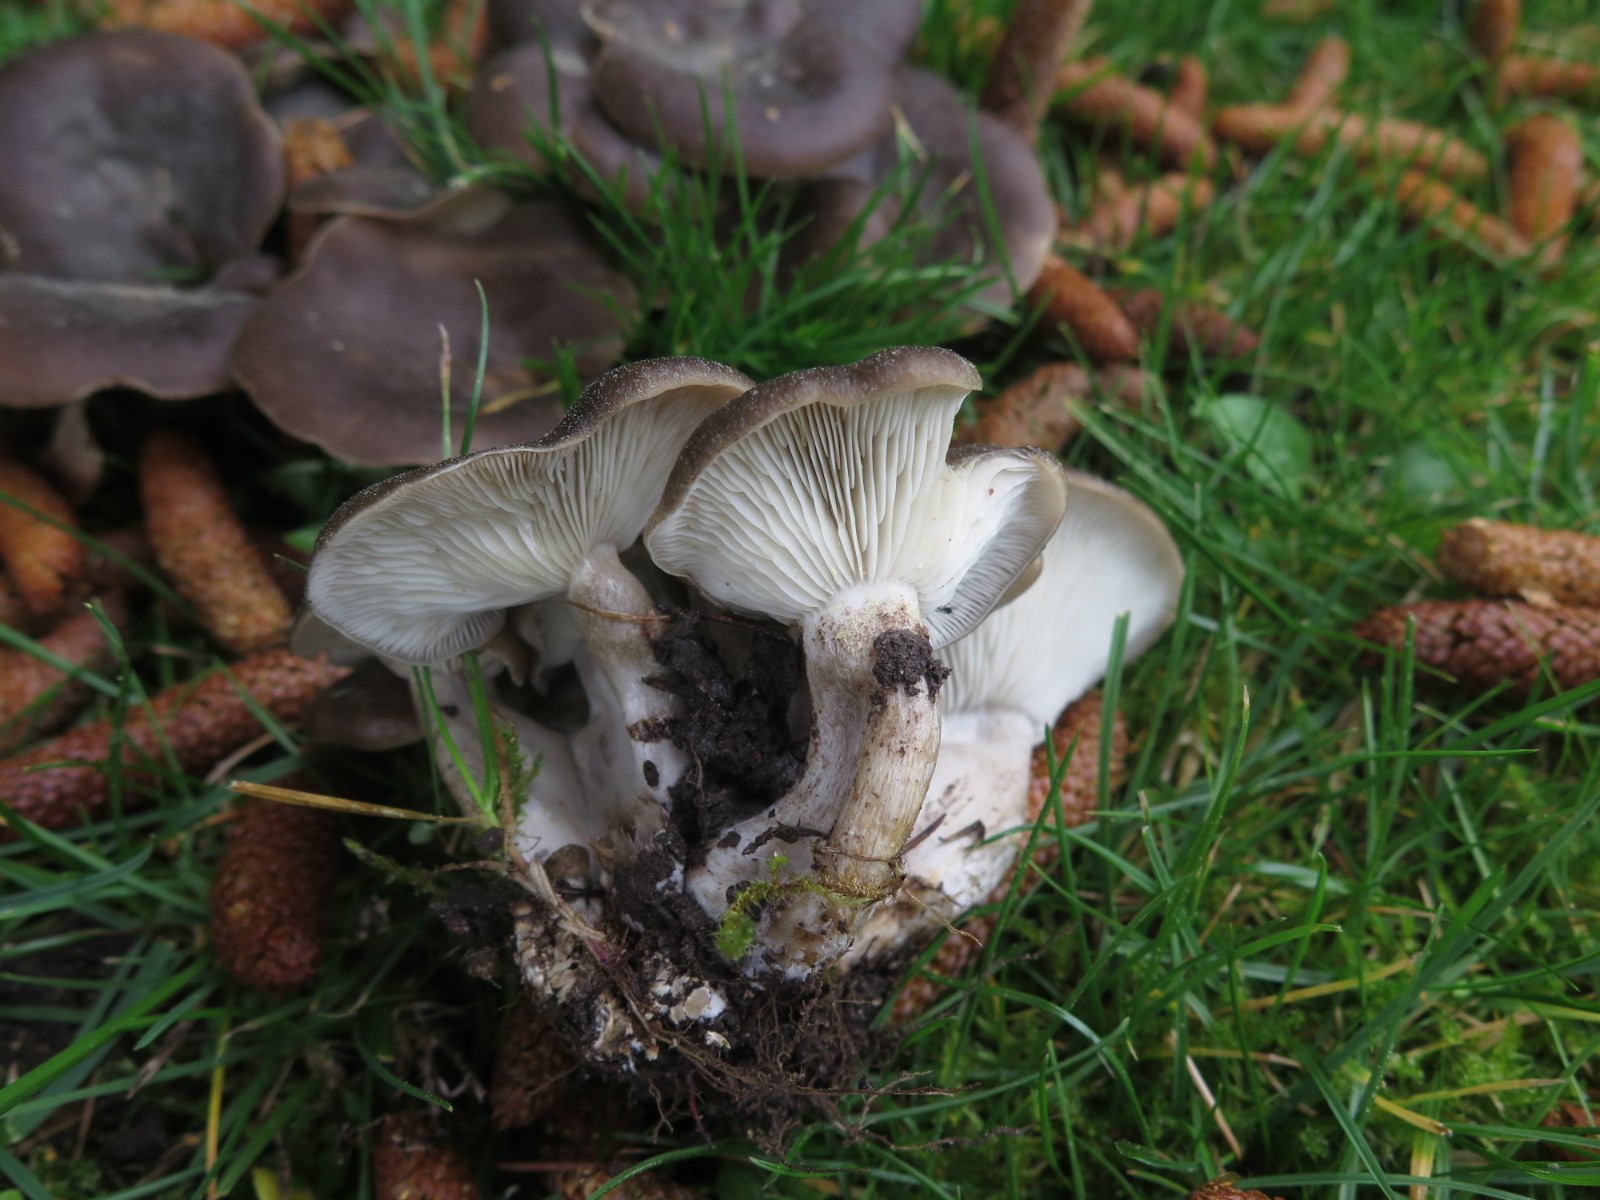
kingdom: Fungi
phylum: Basidiomycota
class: Agaricomycetes
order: Agaricales
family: Lyophyllaceae
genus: Lyophyllum
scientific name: Lyophyllum decastes
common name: røggrå gråblad
